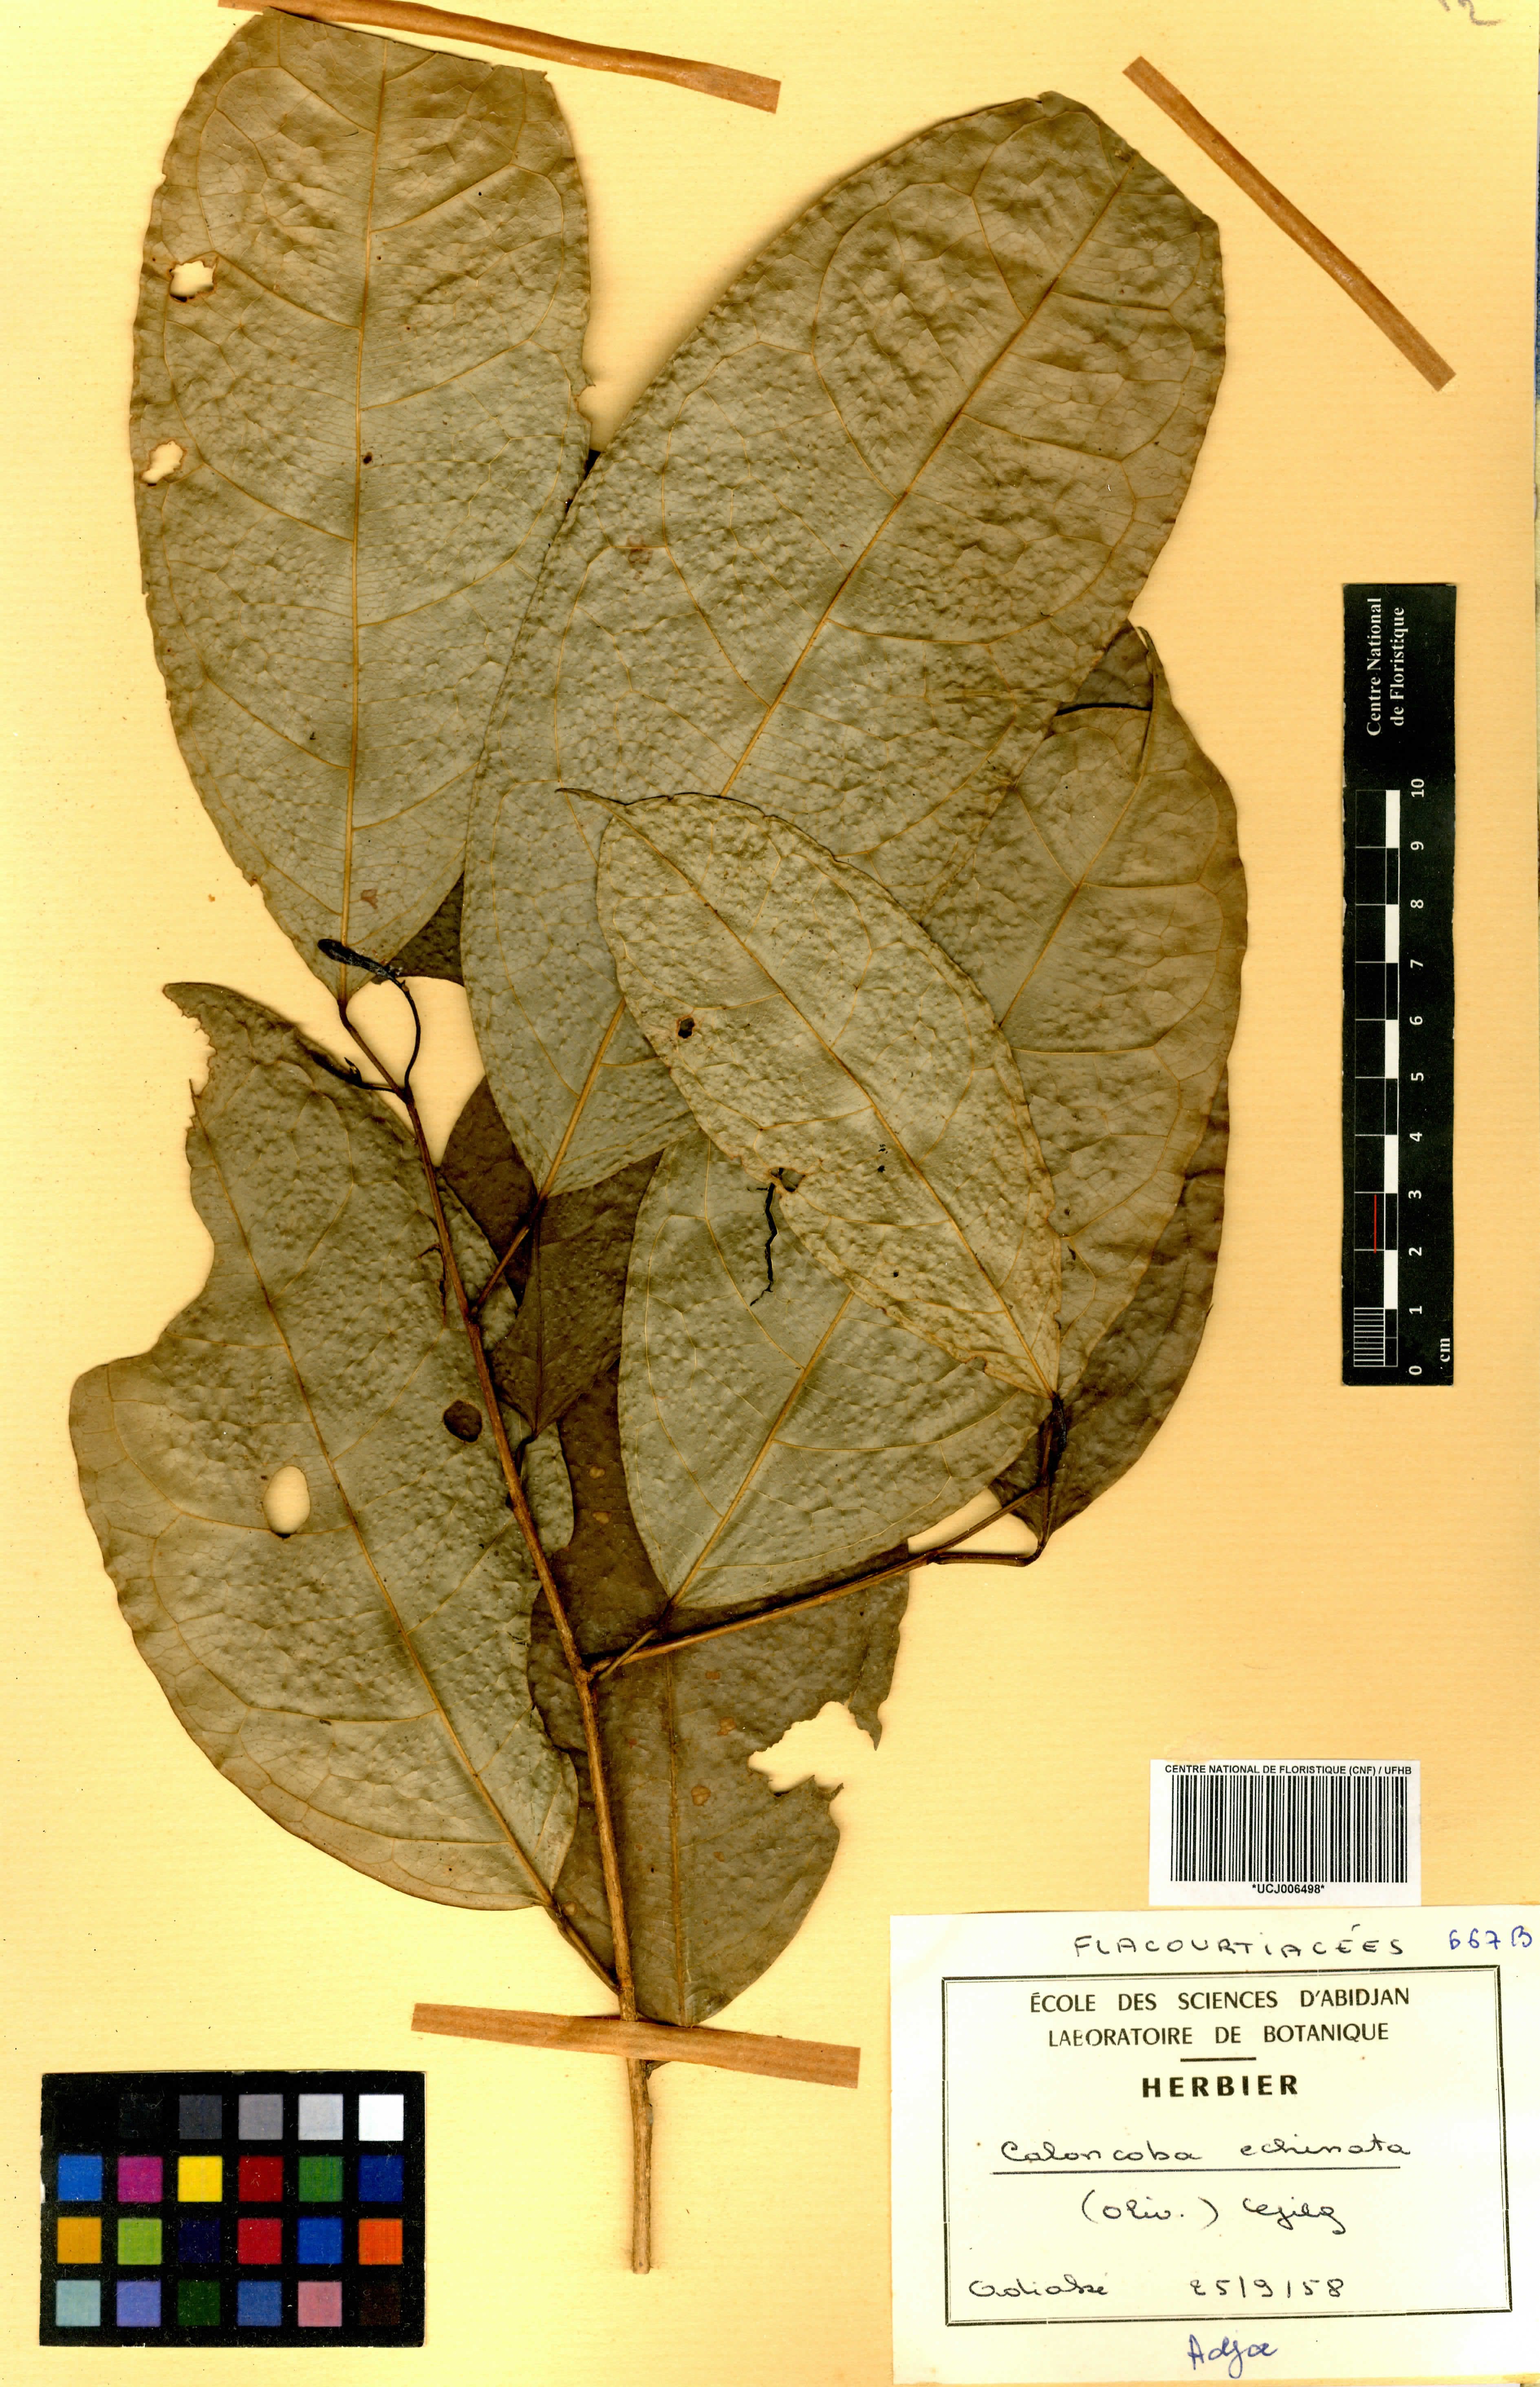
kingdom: Plantae
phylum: Tracheophyta
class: Magnoliopsida
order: Malpighiales
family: Achariaceae
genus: Caloncoba
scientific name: Caloncoba echinata
